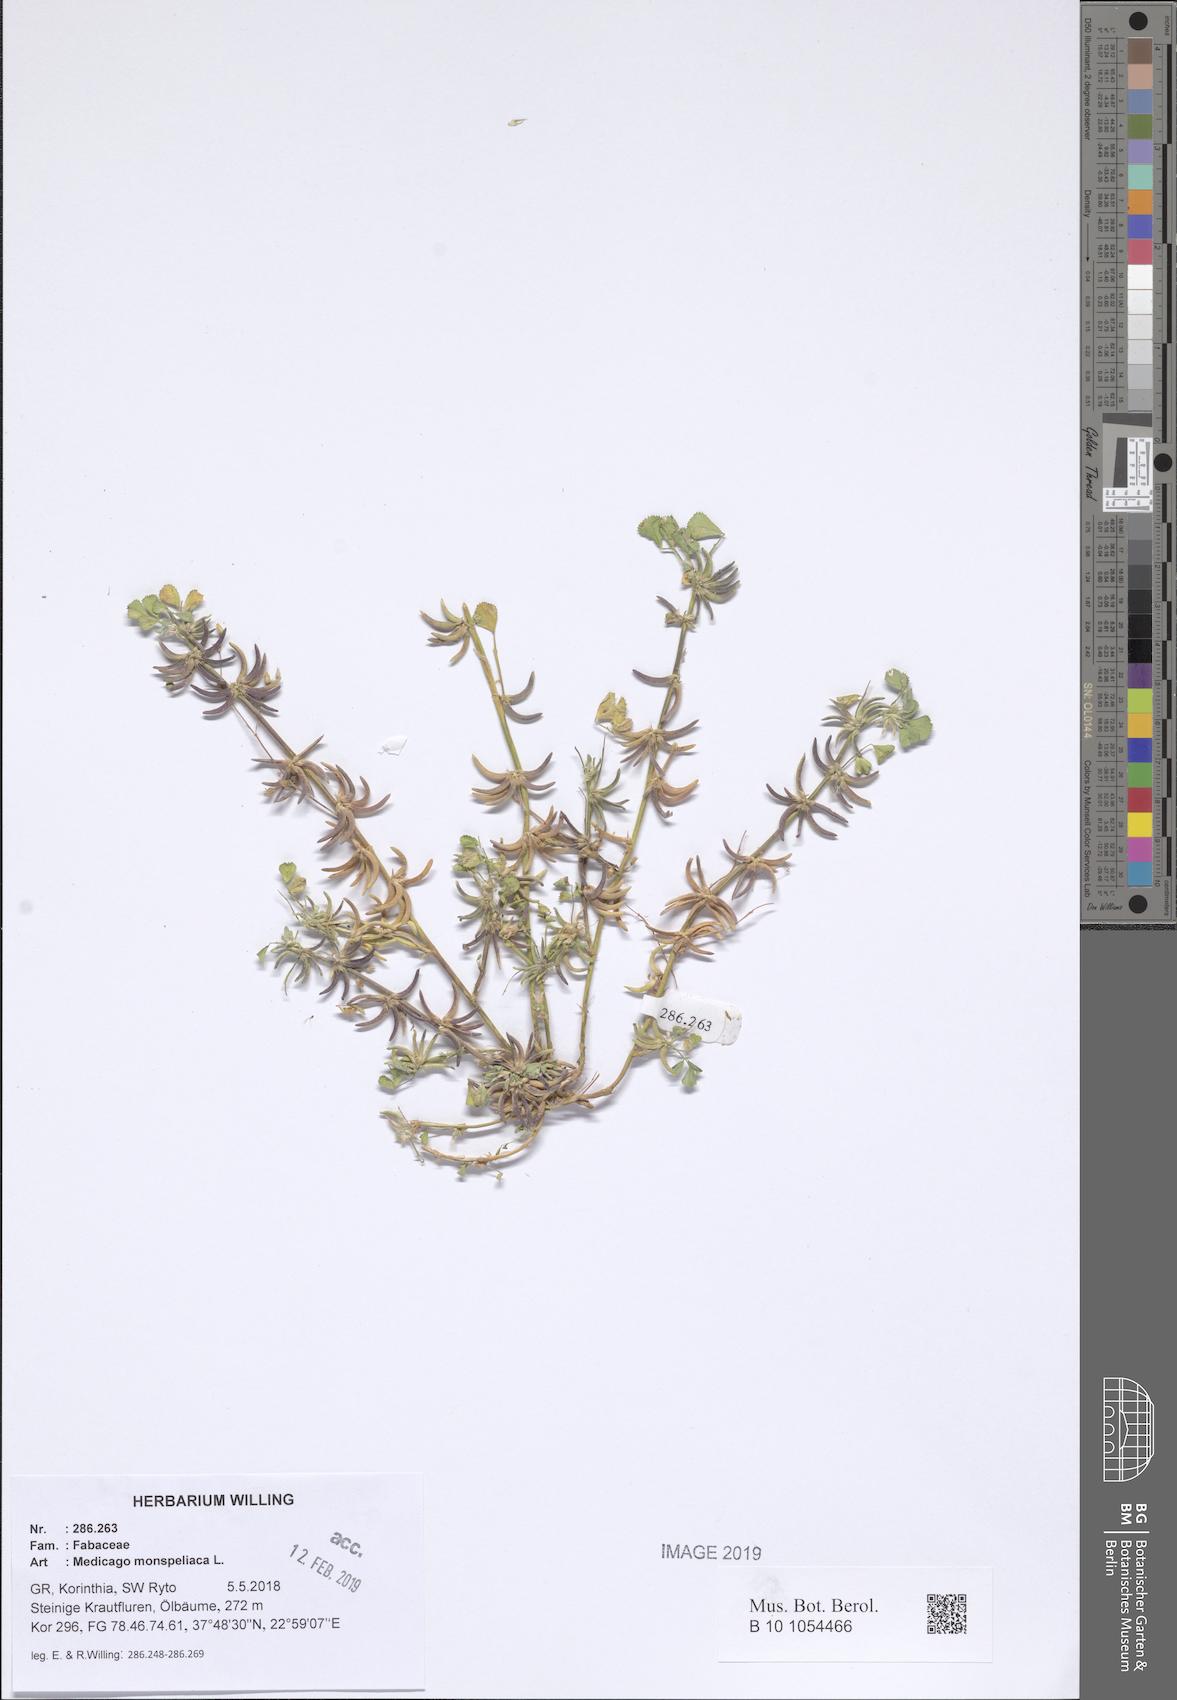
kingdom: Plantae
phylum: Tracheophyta
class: Magnoliopsida
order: Fabales
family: Fabaceae
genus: Medicago
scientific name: Medicago monspeliaca
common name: Hairy medick
